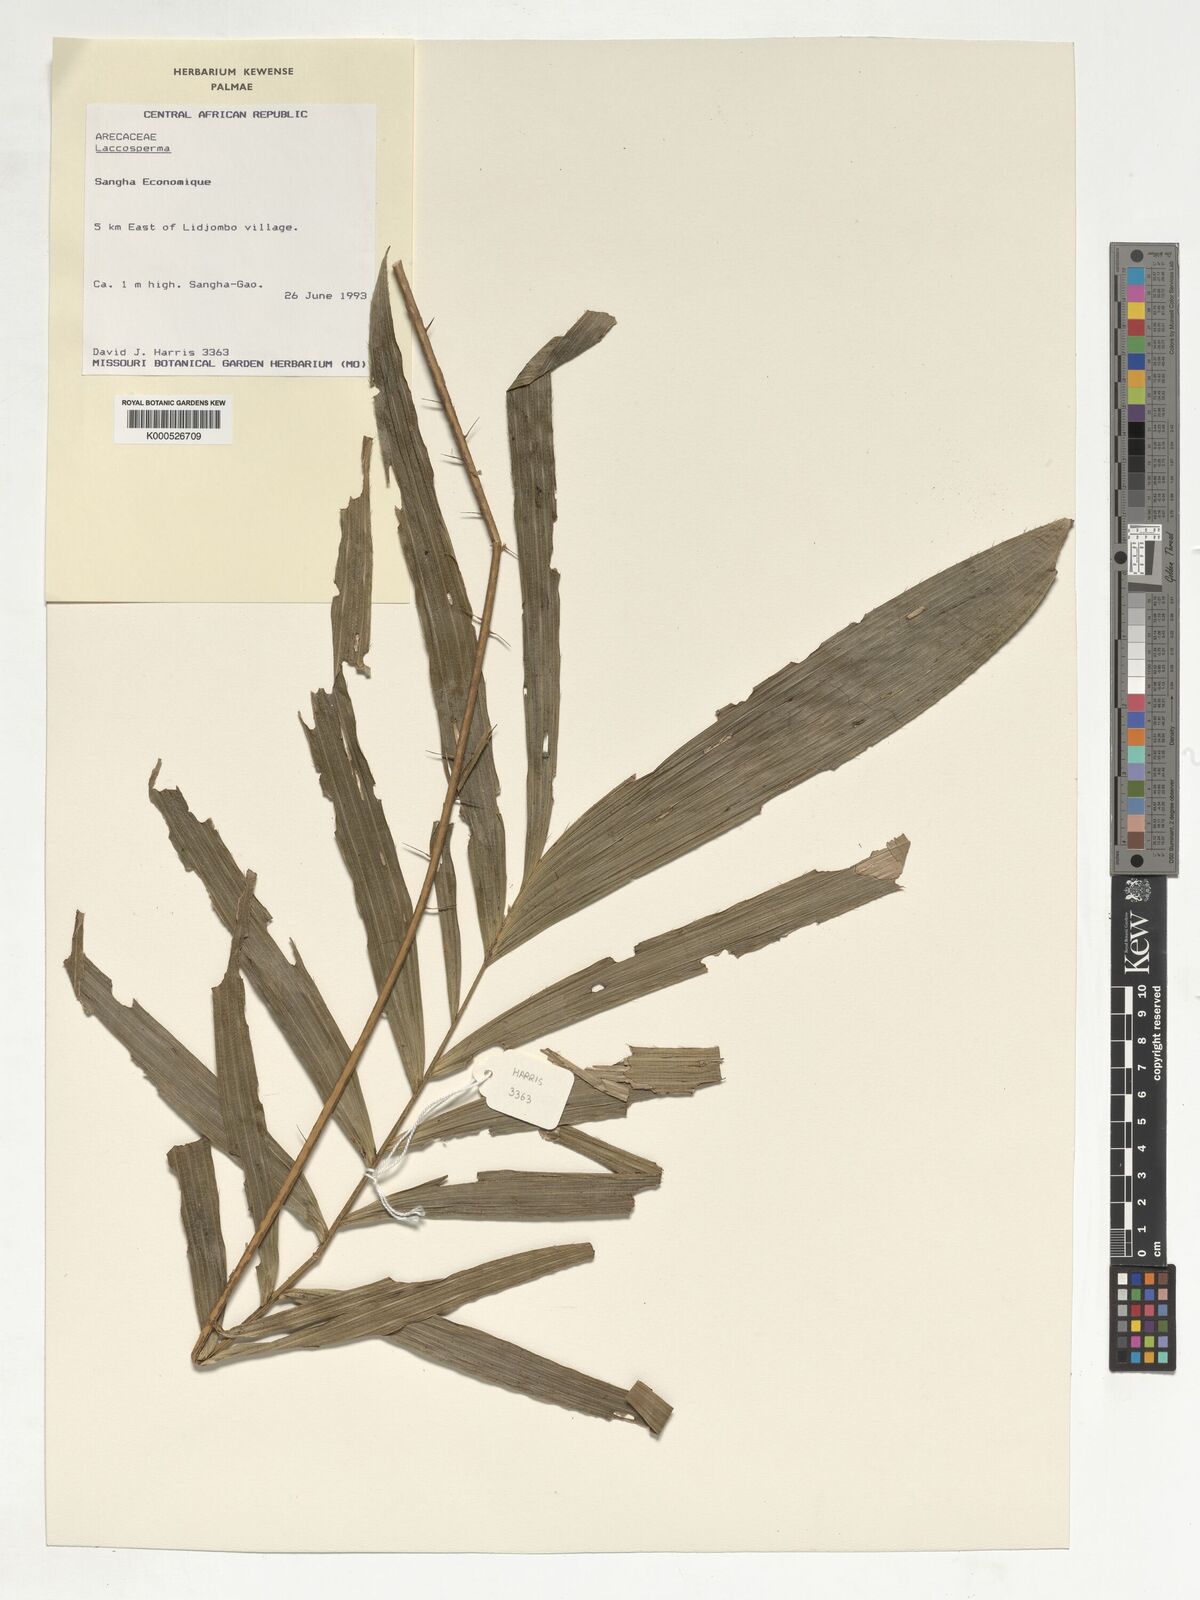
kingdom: Plantae
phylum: Tracheophyta
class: Liliopsida
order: Arecales
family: Arecaceae
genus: Laccosperma
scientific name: Laccosperma
